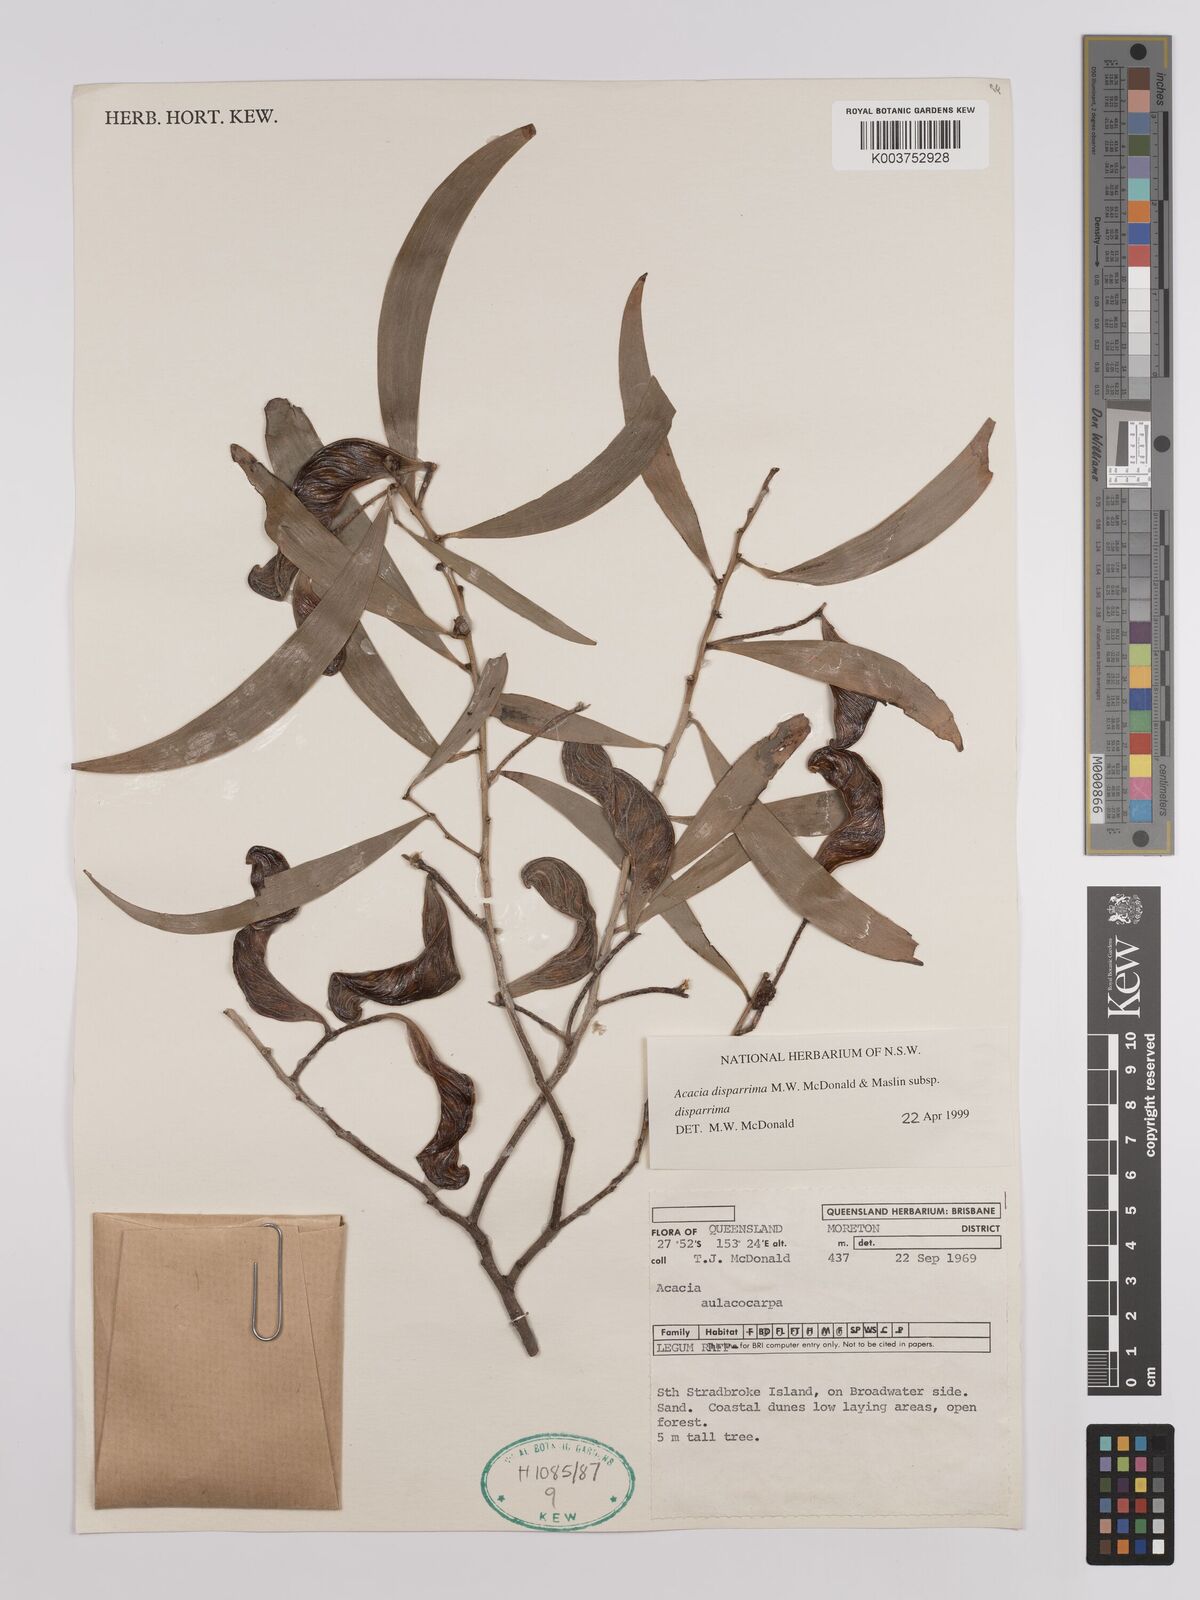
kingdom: Plantae
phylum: Tracheophyta
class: Magnoliopsida
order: Fabales
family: Fabaceae
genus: Acacia
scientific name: Acacia disparrima
